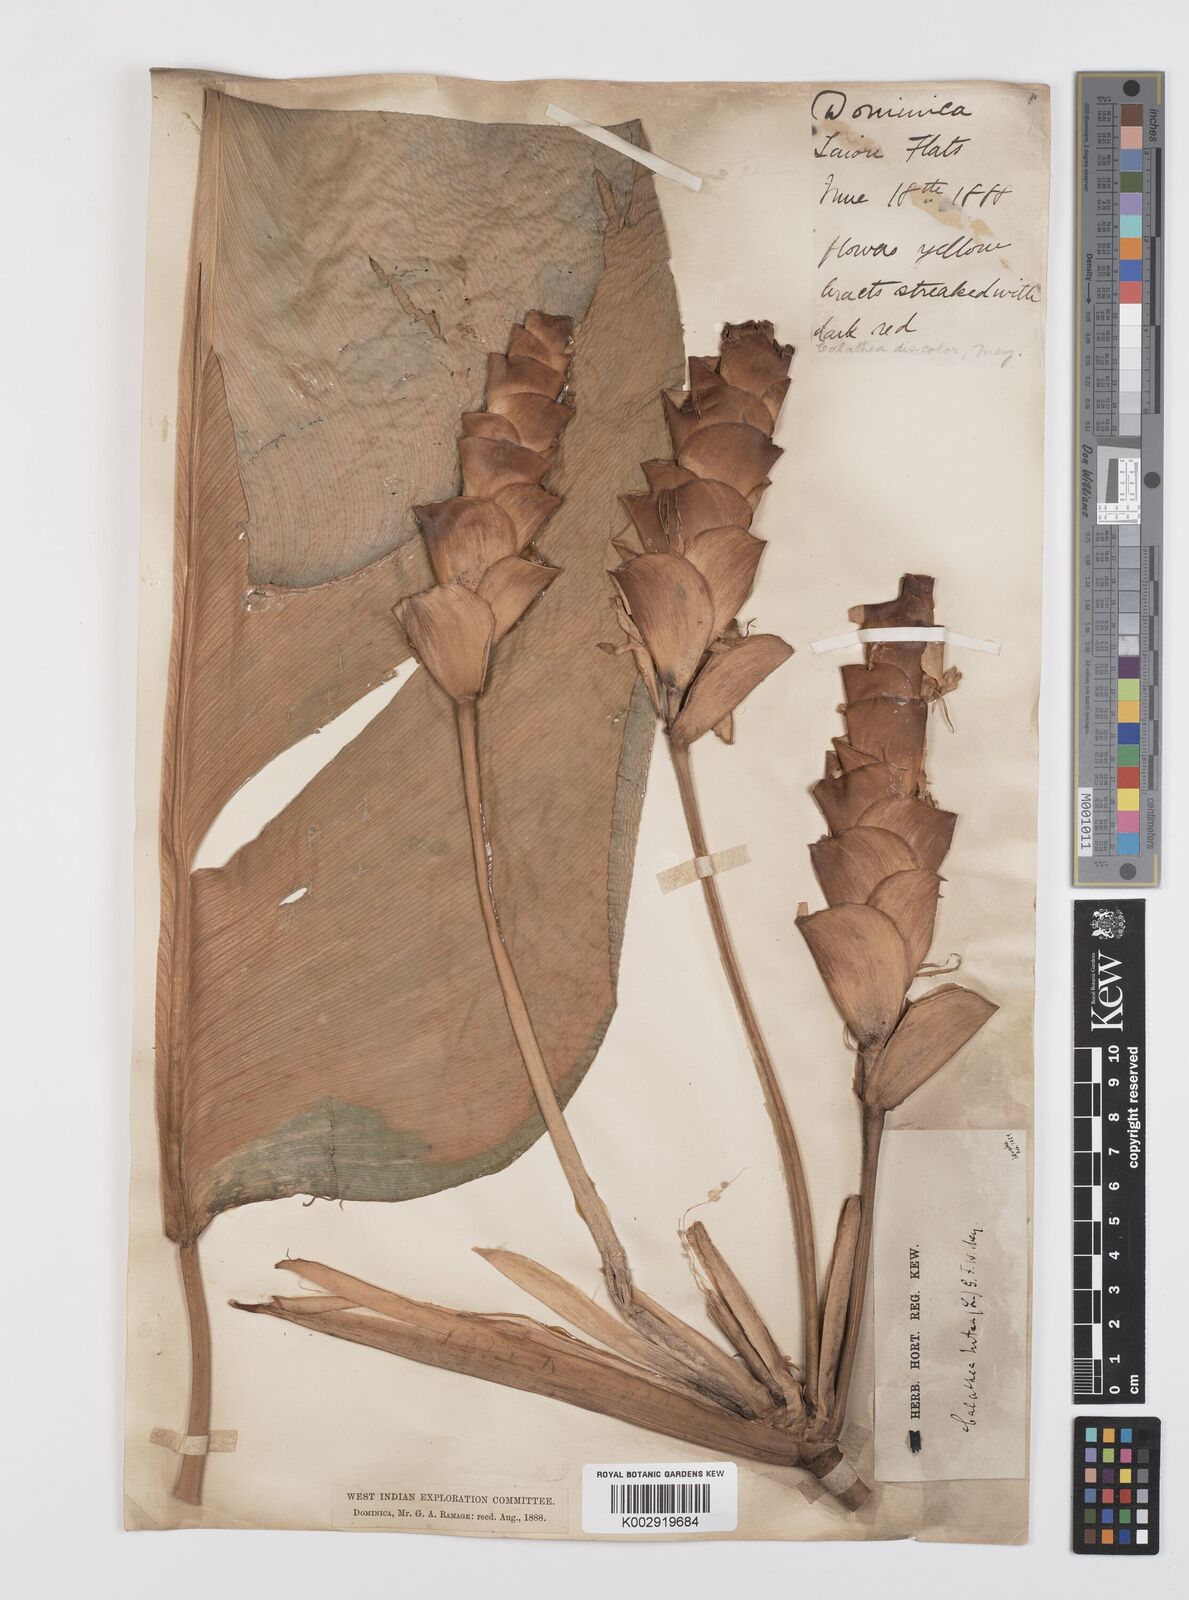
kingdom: Plantae
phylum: Tracheophyta
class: Liliopsida
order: Zingiberales
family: Marantaceae
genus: Calathea
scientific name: Calathea lutea
